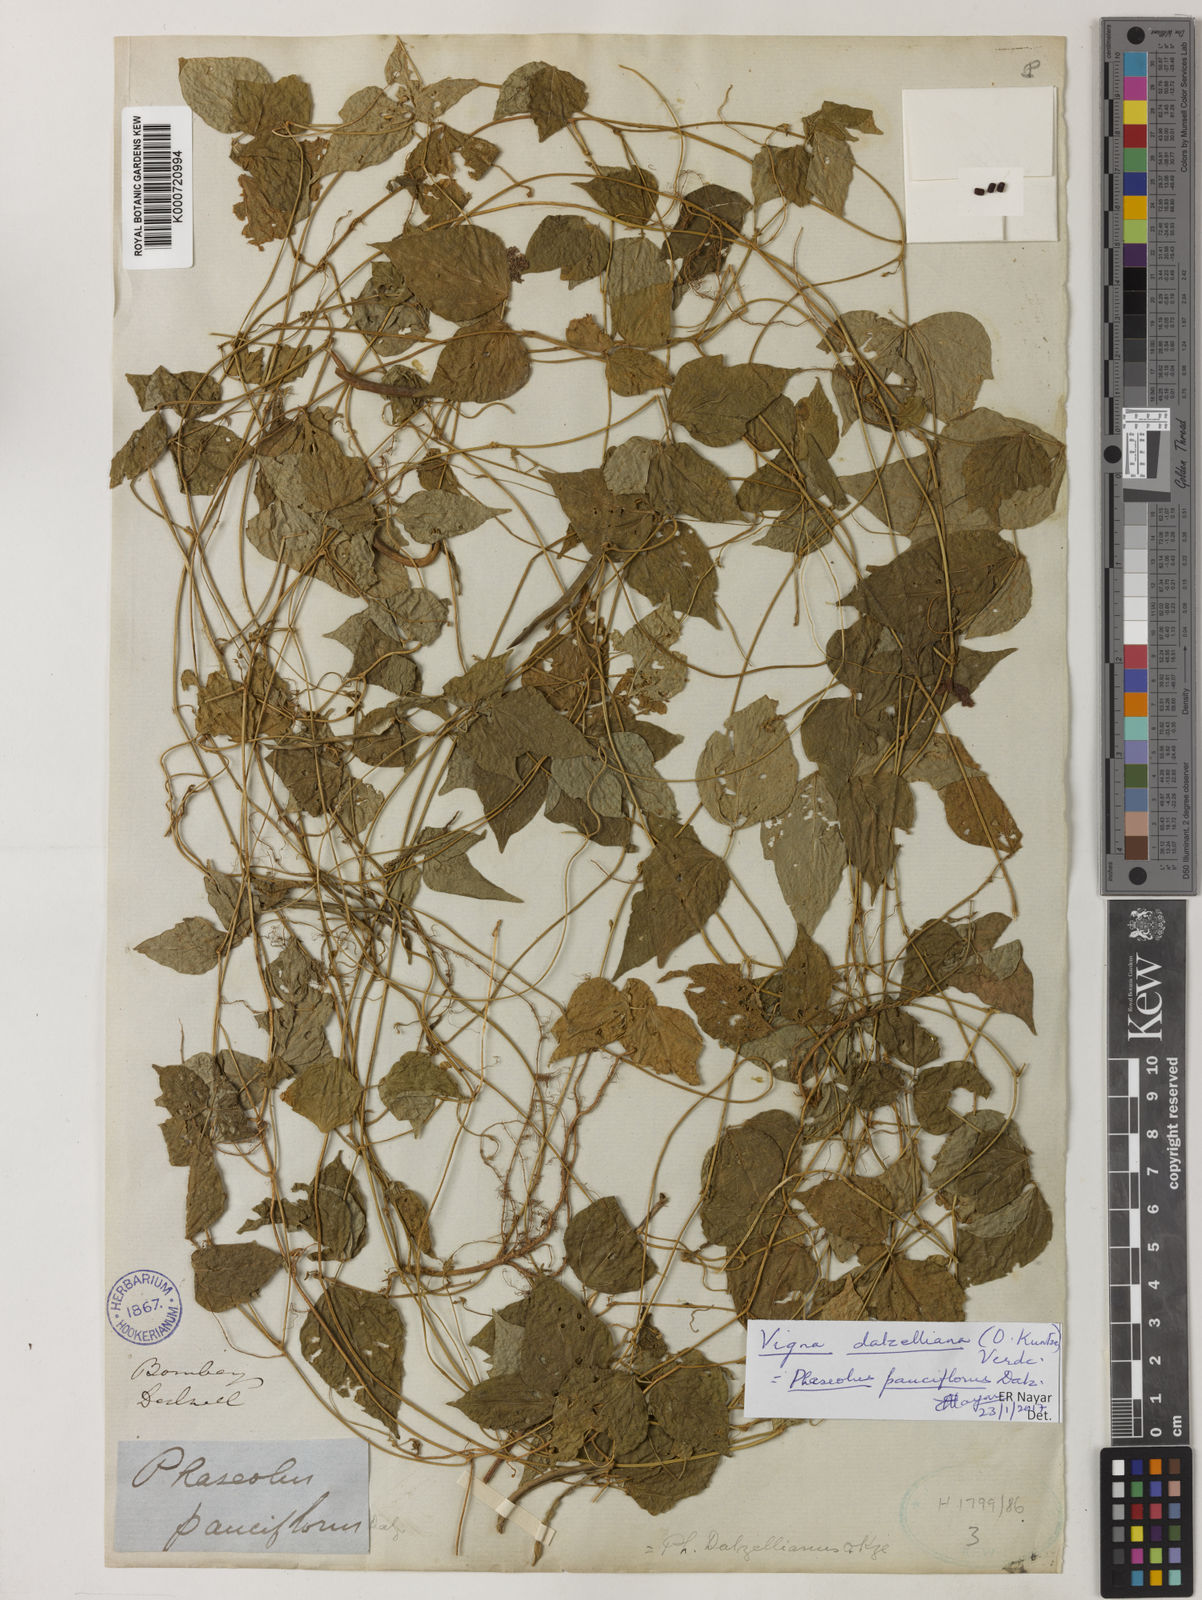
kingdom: Plantae
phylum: Tracheophyta
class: Magnoliopsida
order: Fabales
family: Fabaceae
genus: Vigna
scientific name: Vigna dalzelliana
